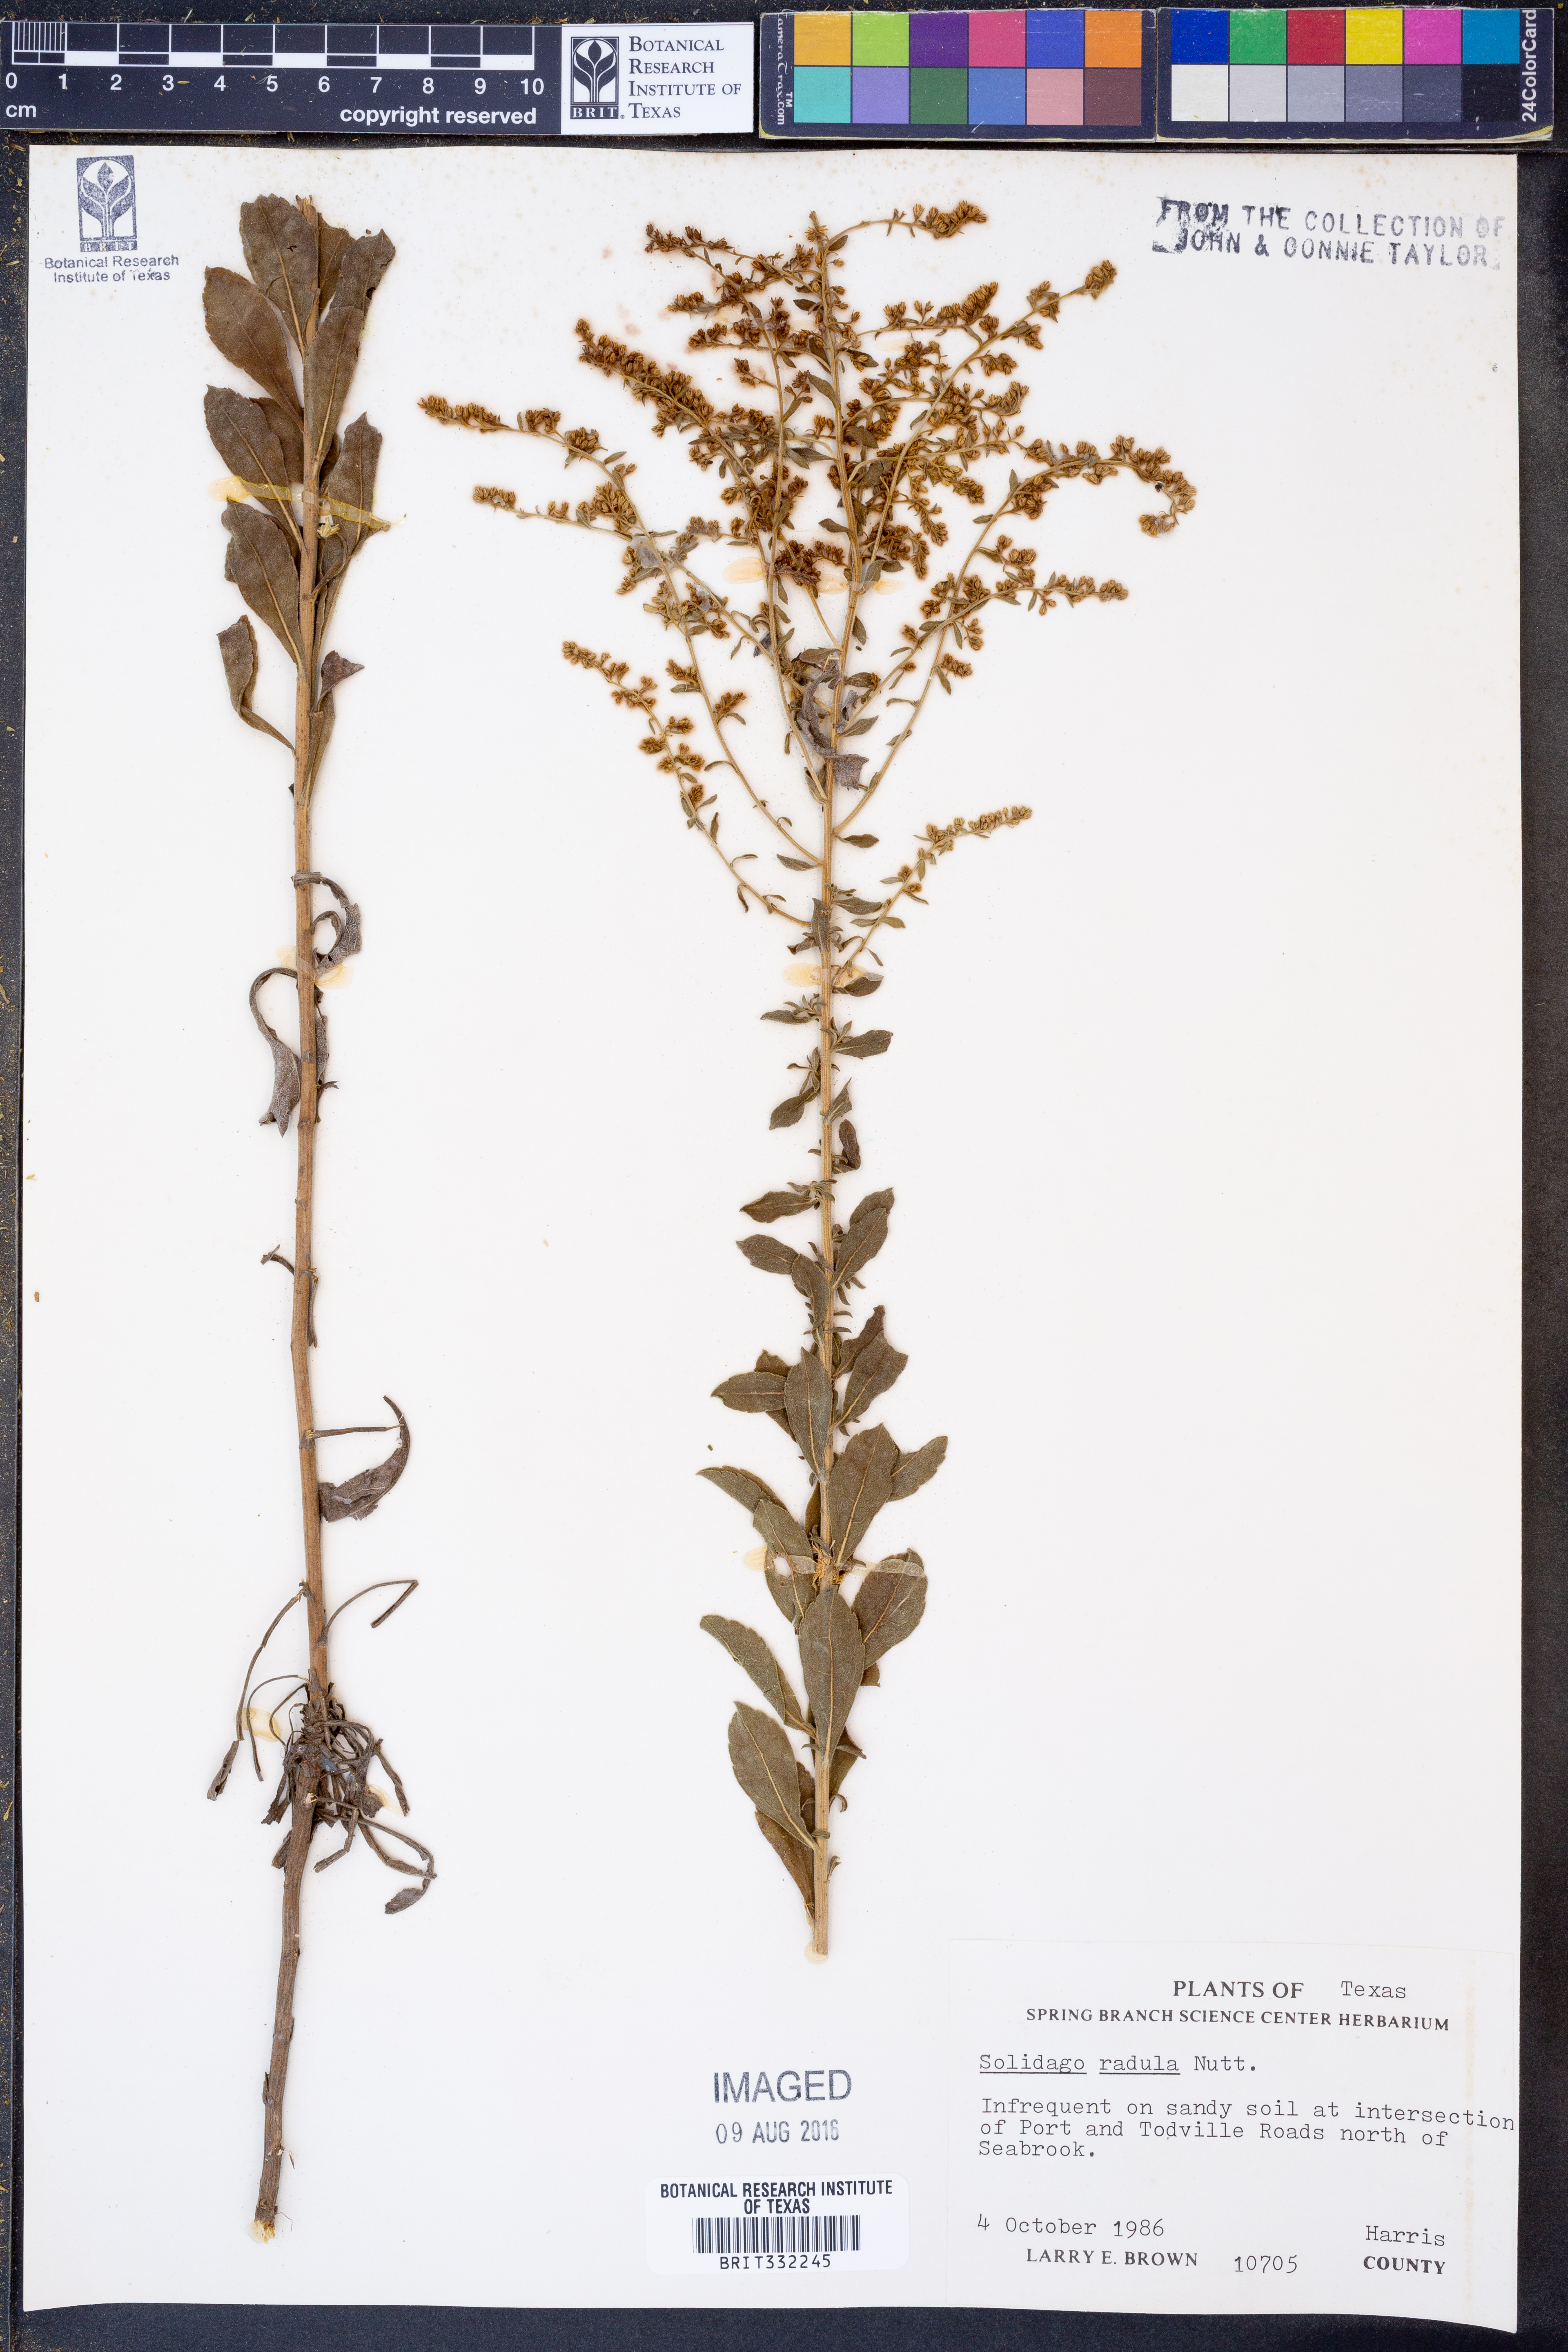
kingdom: Plantae
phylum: Tracheophyta
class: Magnoliopsida
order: Asterales
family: Asteraceae
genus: Solidago
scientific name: Solidago radula
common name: Western rough goldenrod
